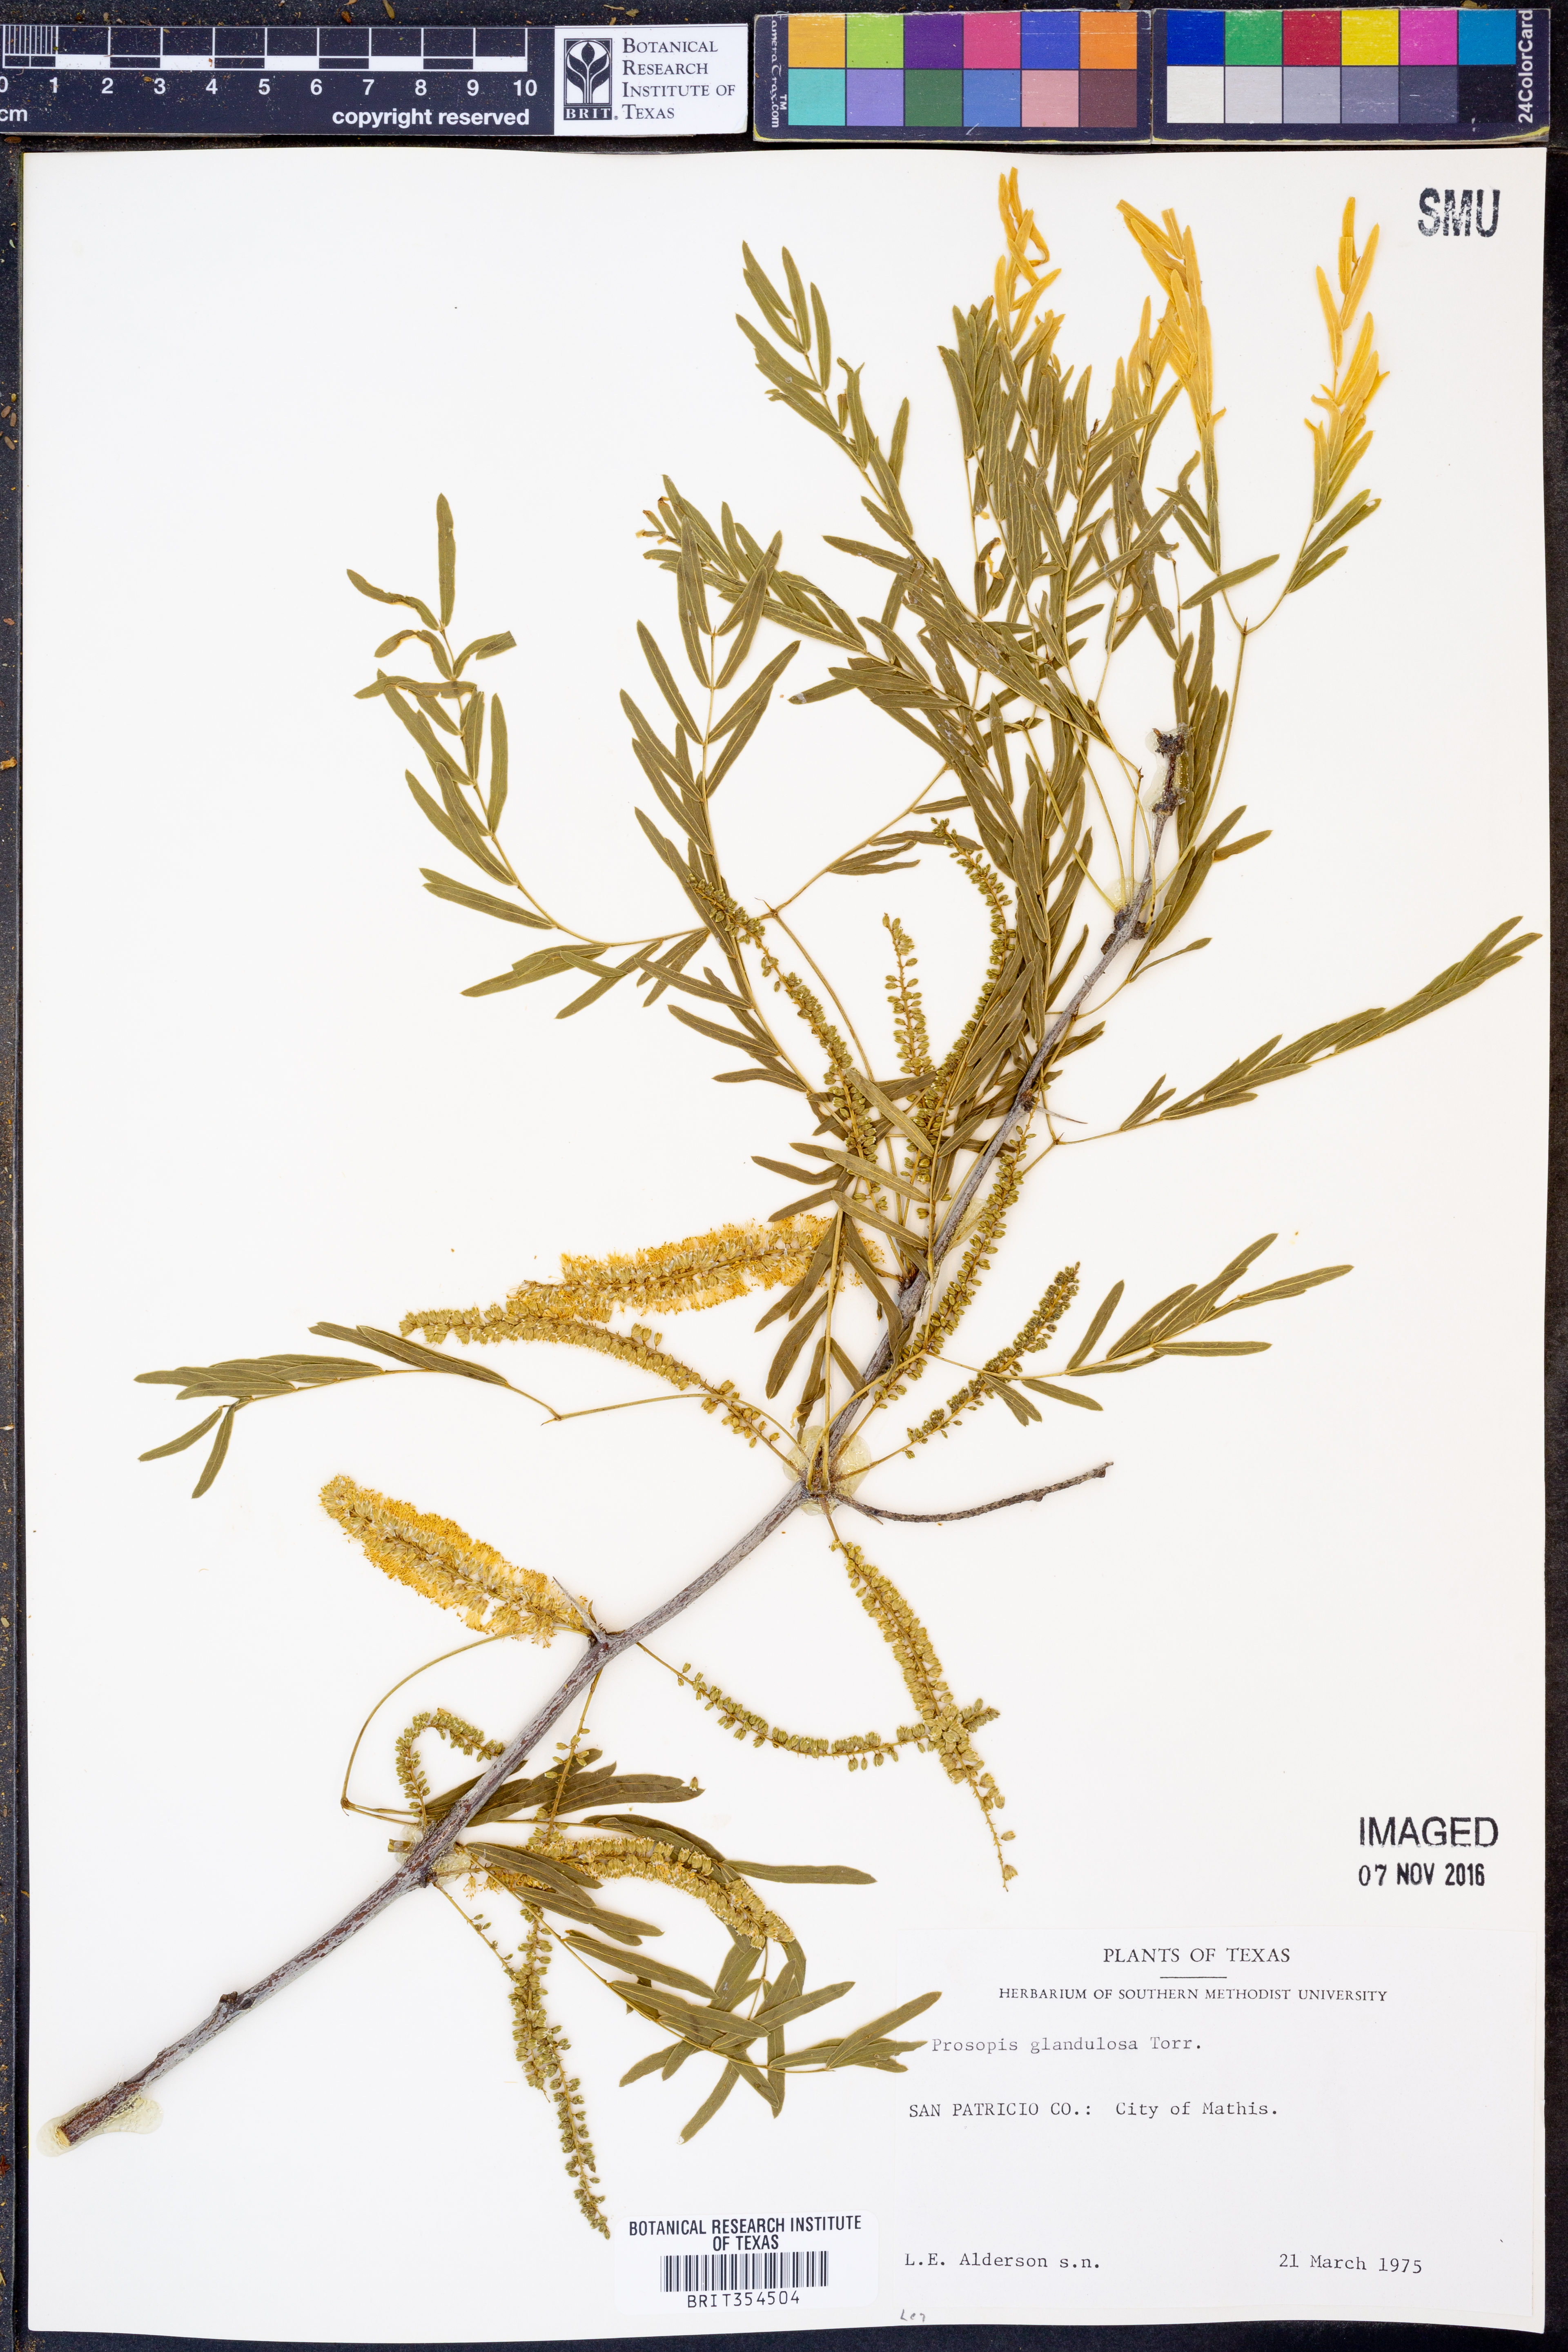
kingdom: Plantae
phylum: Tracheophyta
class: Magnoliopsida
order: Fabales
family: Fabaceae
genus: Psoralea
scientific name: Psoralea Otholobium glandulosum
